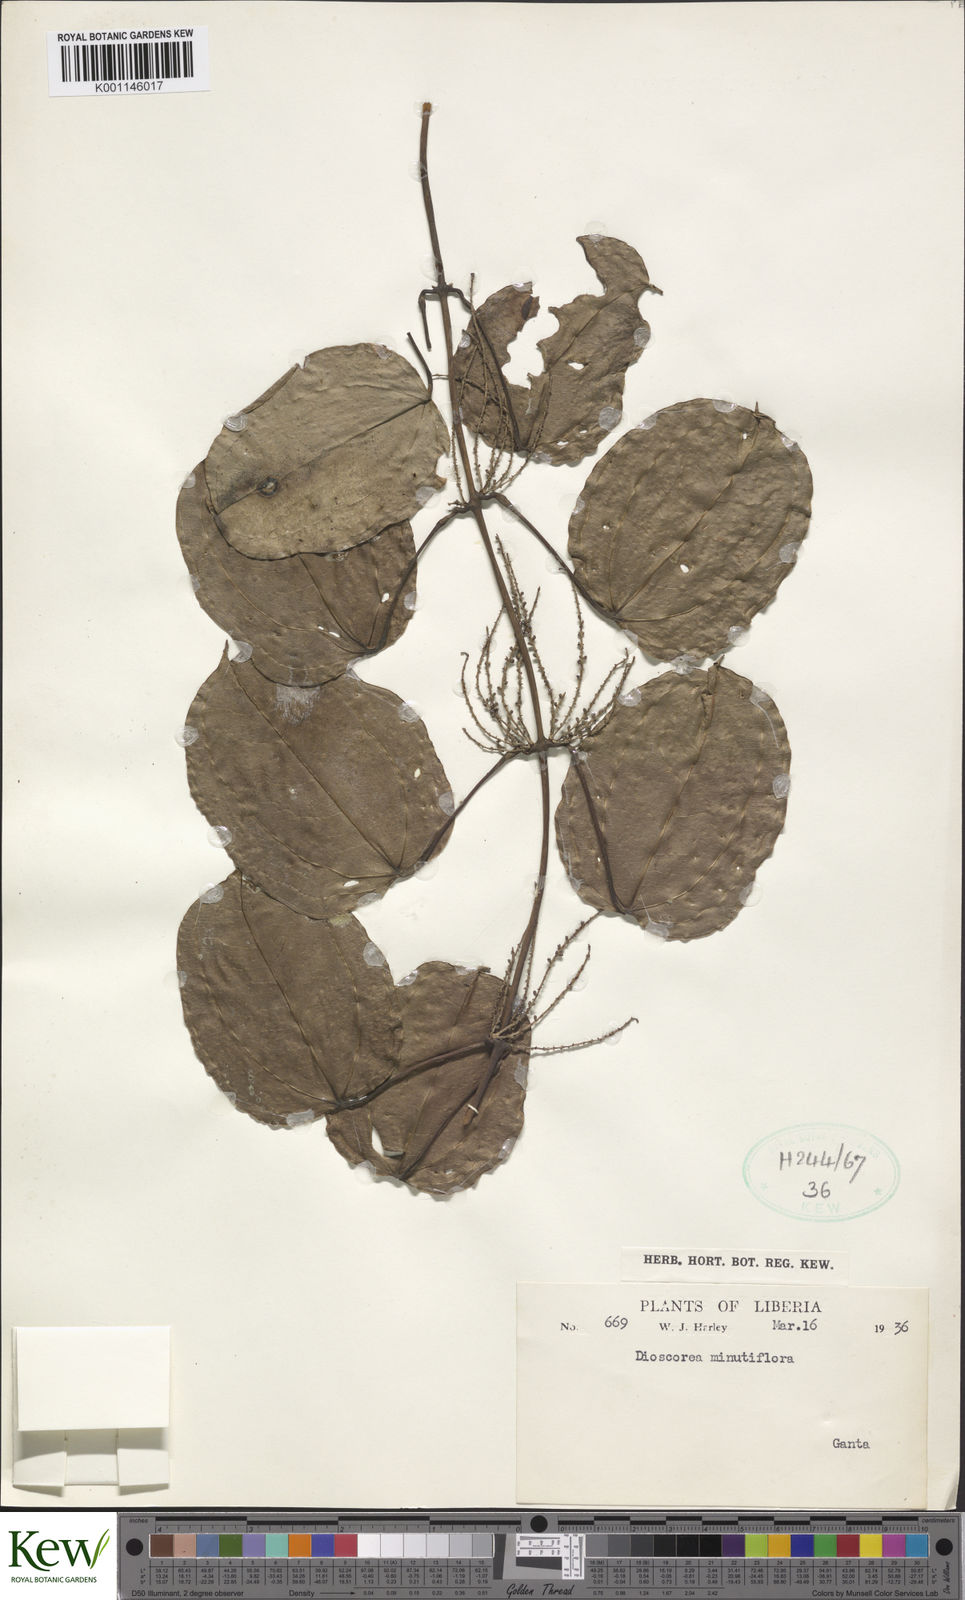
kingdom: Plantae
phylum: Tracheophyta
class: Liliopsida
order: Dioscoreales
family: Dioscoreaceae
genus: Dioscorea
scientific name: Dioscorea minutiflora
